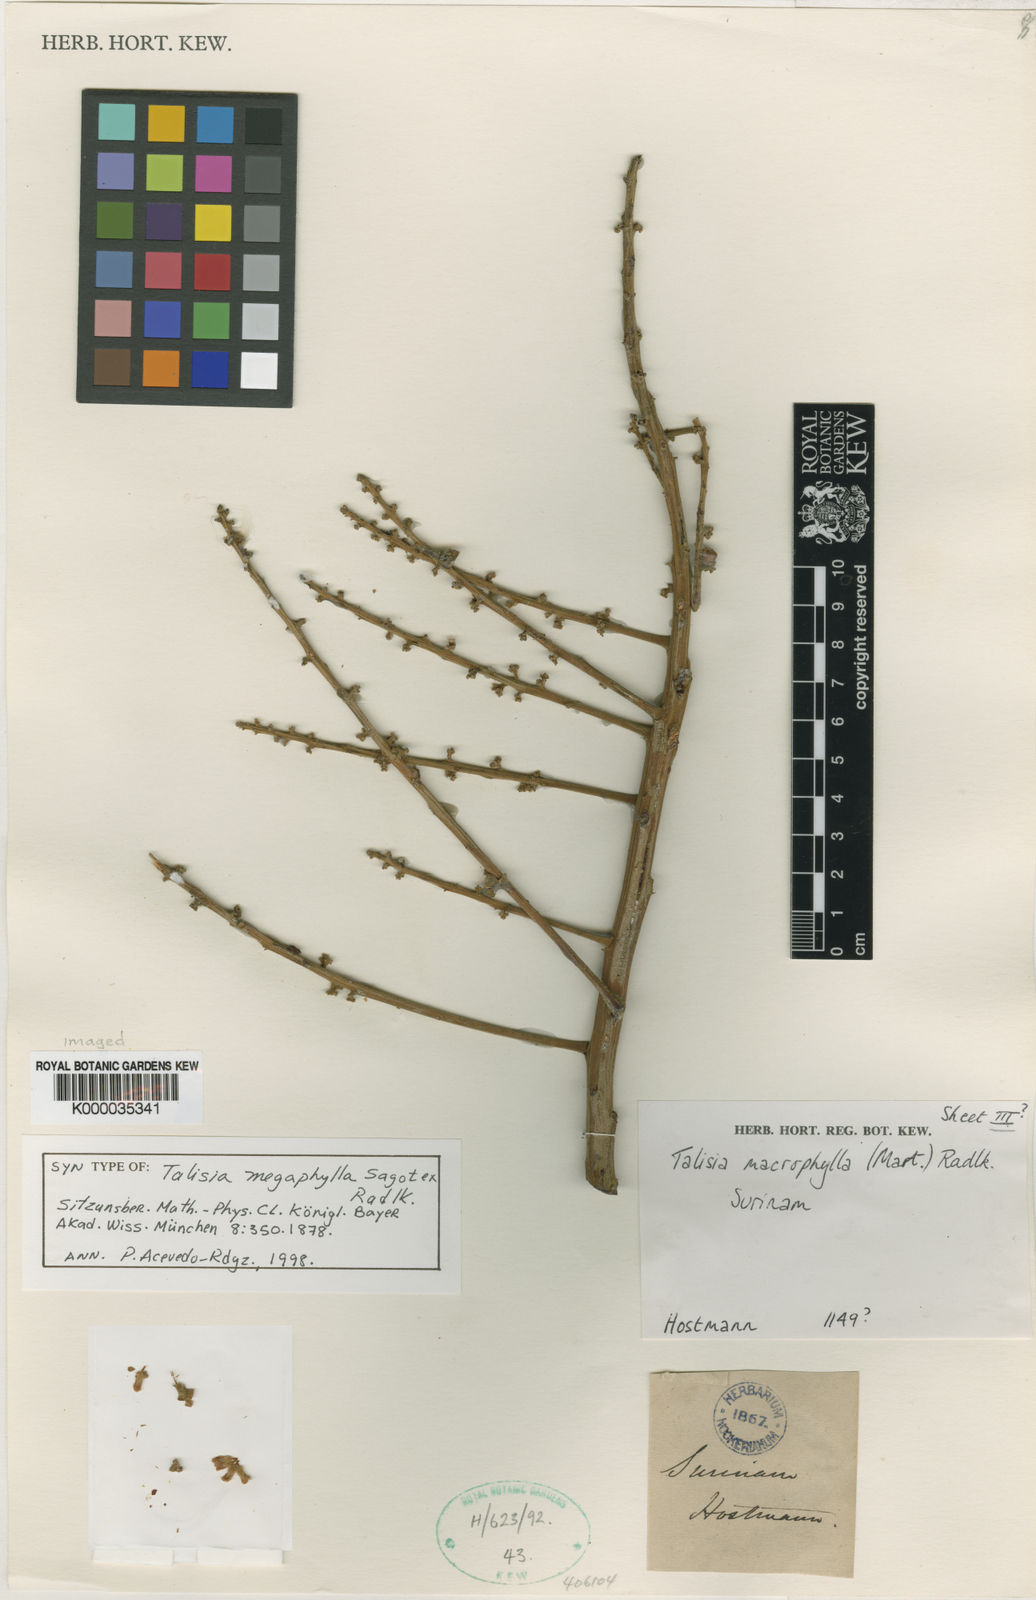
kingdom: Plantae
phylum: Tracheophyta
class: Magnoliopsida
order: Sapindales
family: Sapindaceae
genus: Talisia
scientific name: Talisia
